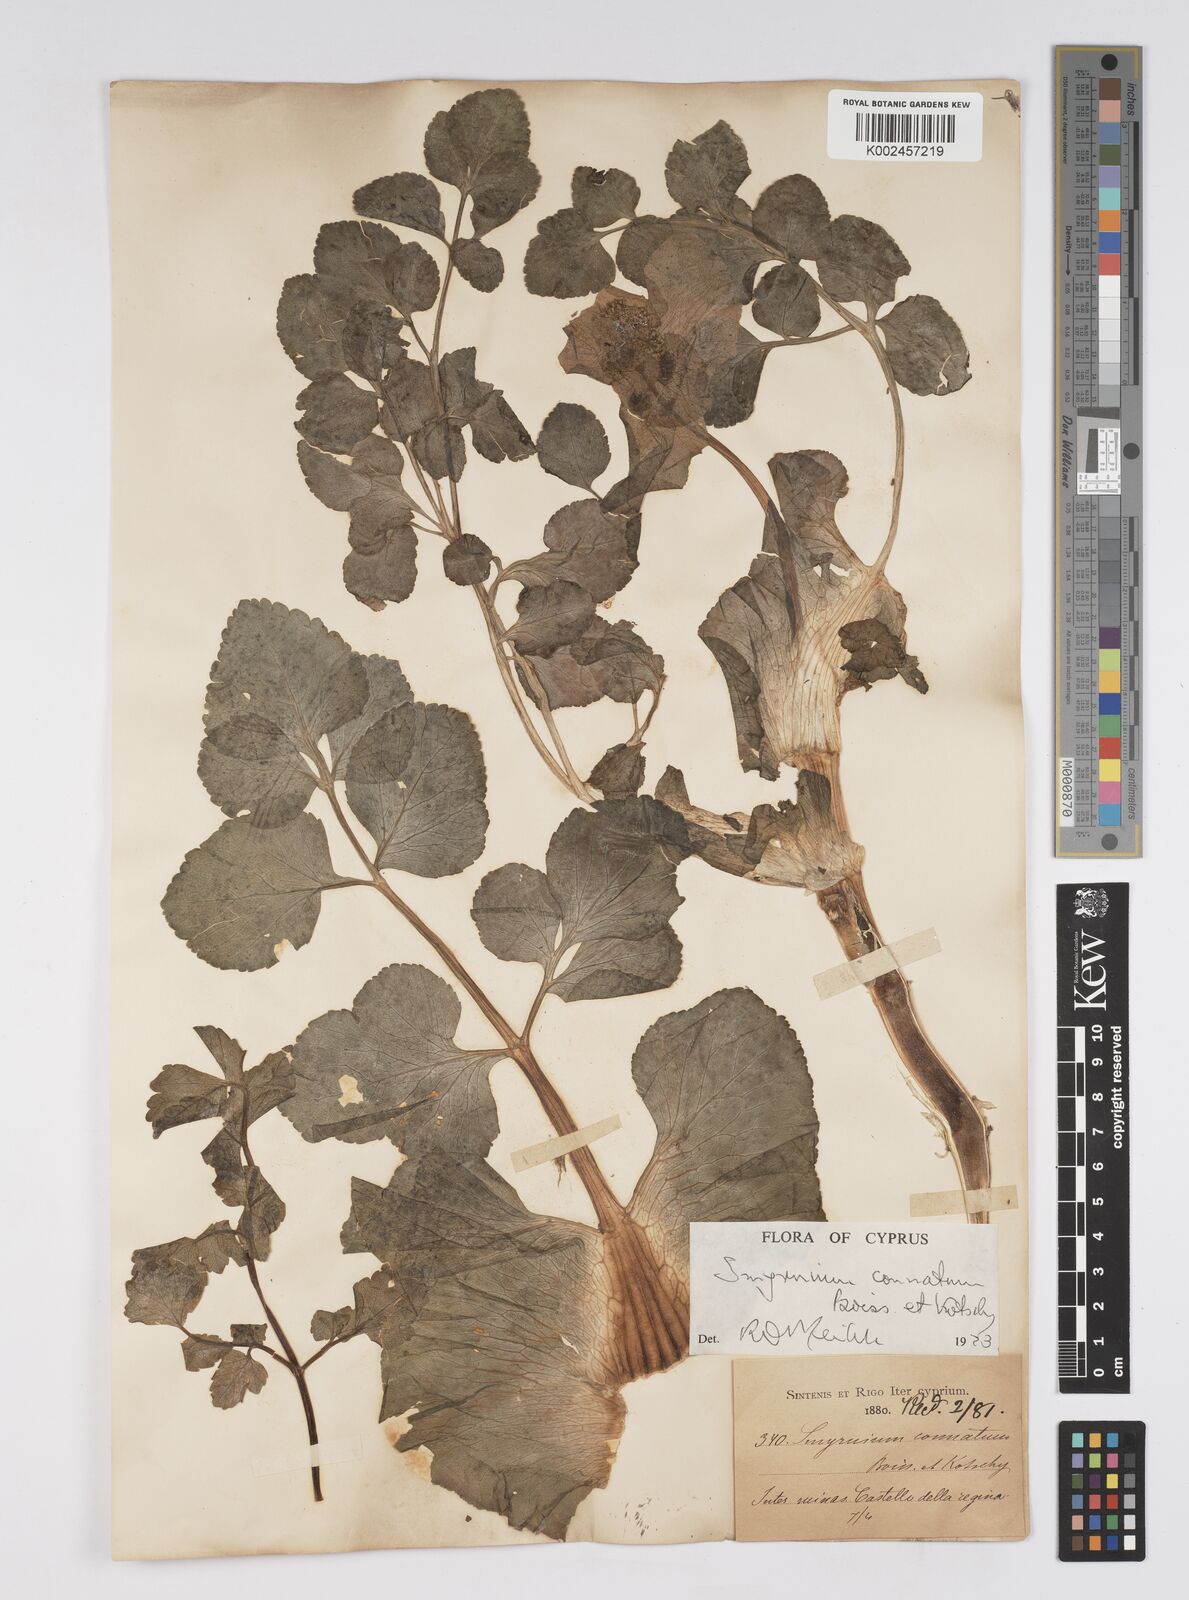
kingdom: Plantae
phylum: Tracheophyta
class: Magnoliopsida
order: Apiales
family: Apiaceae
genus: Smyrnium
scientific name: Smyrnium connatum
